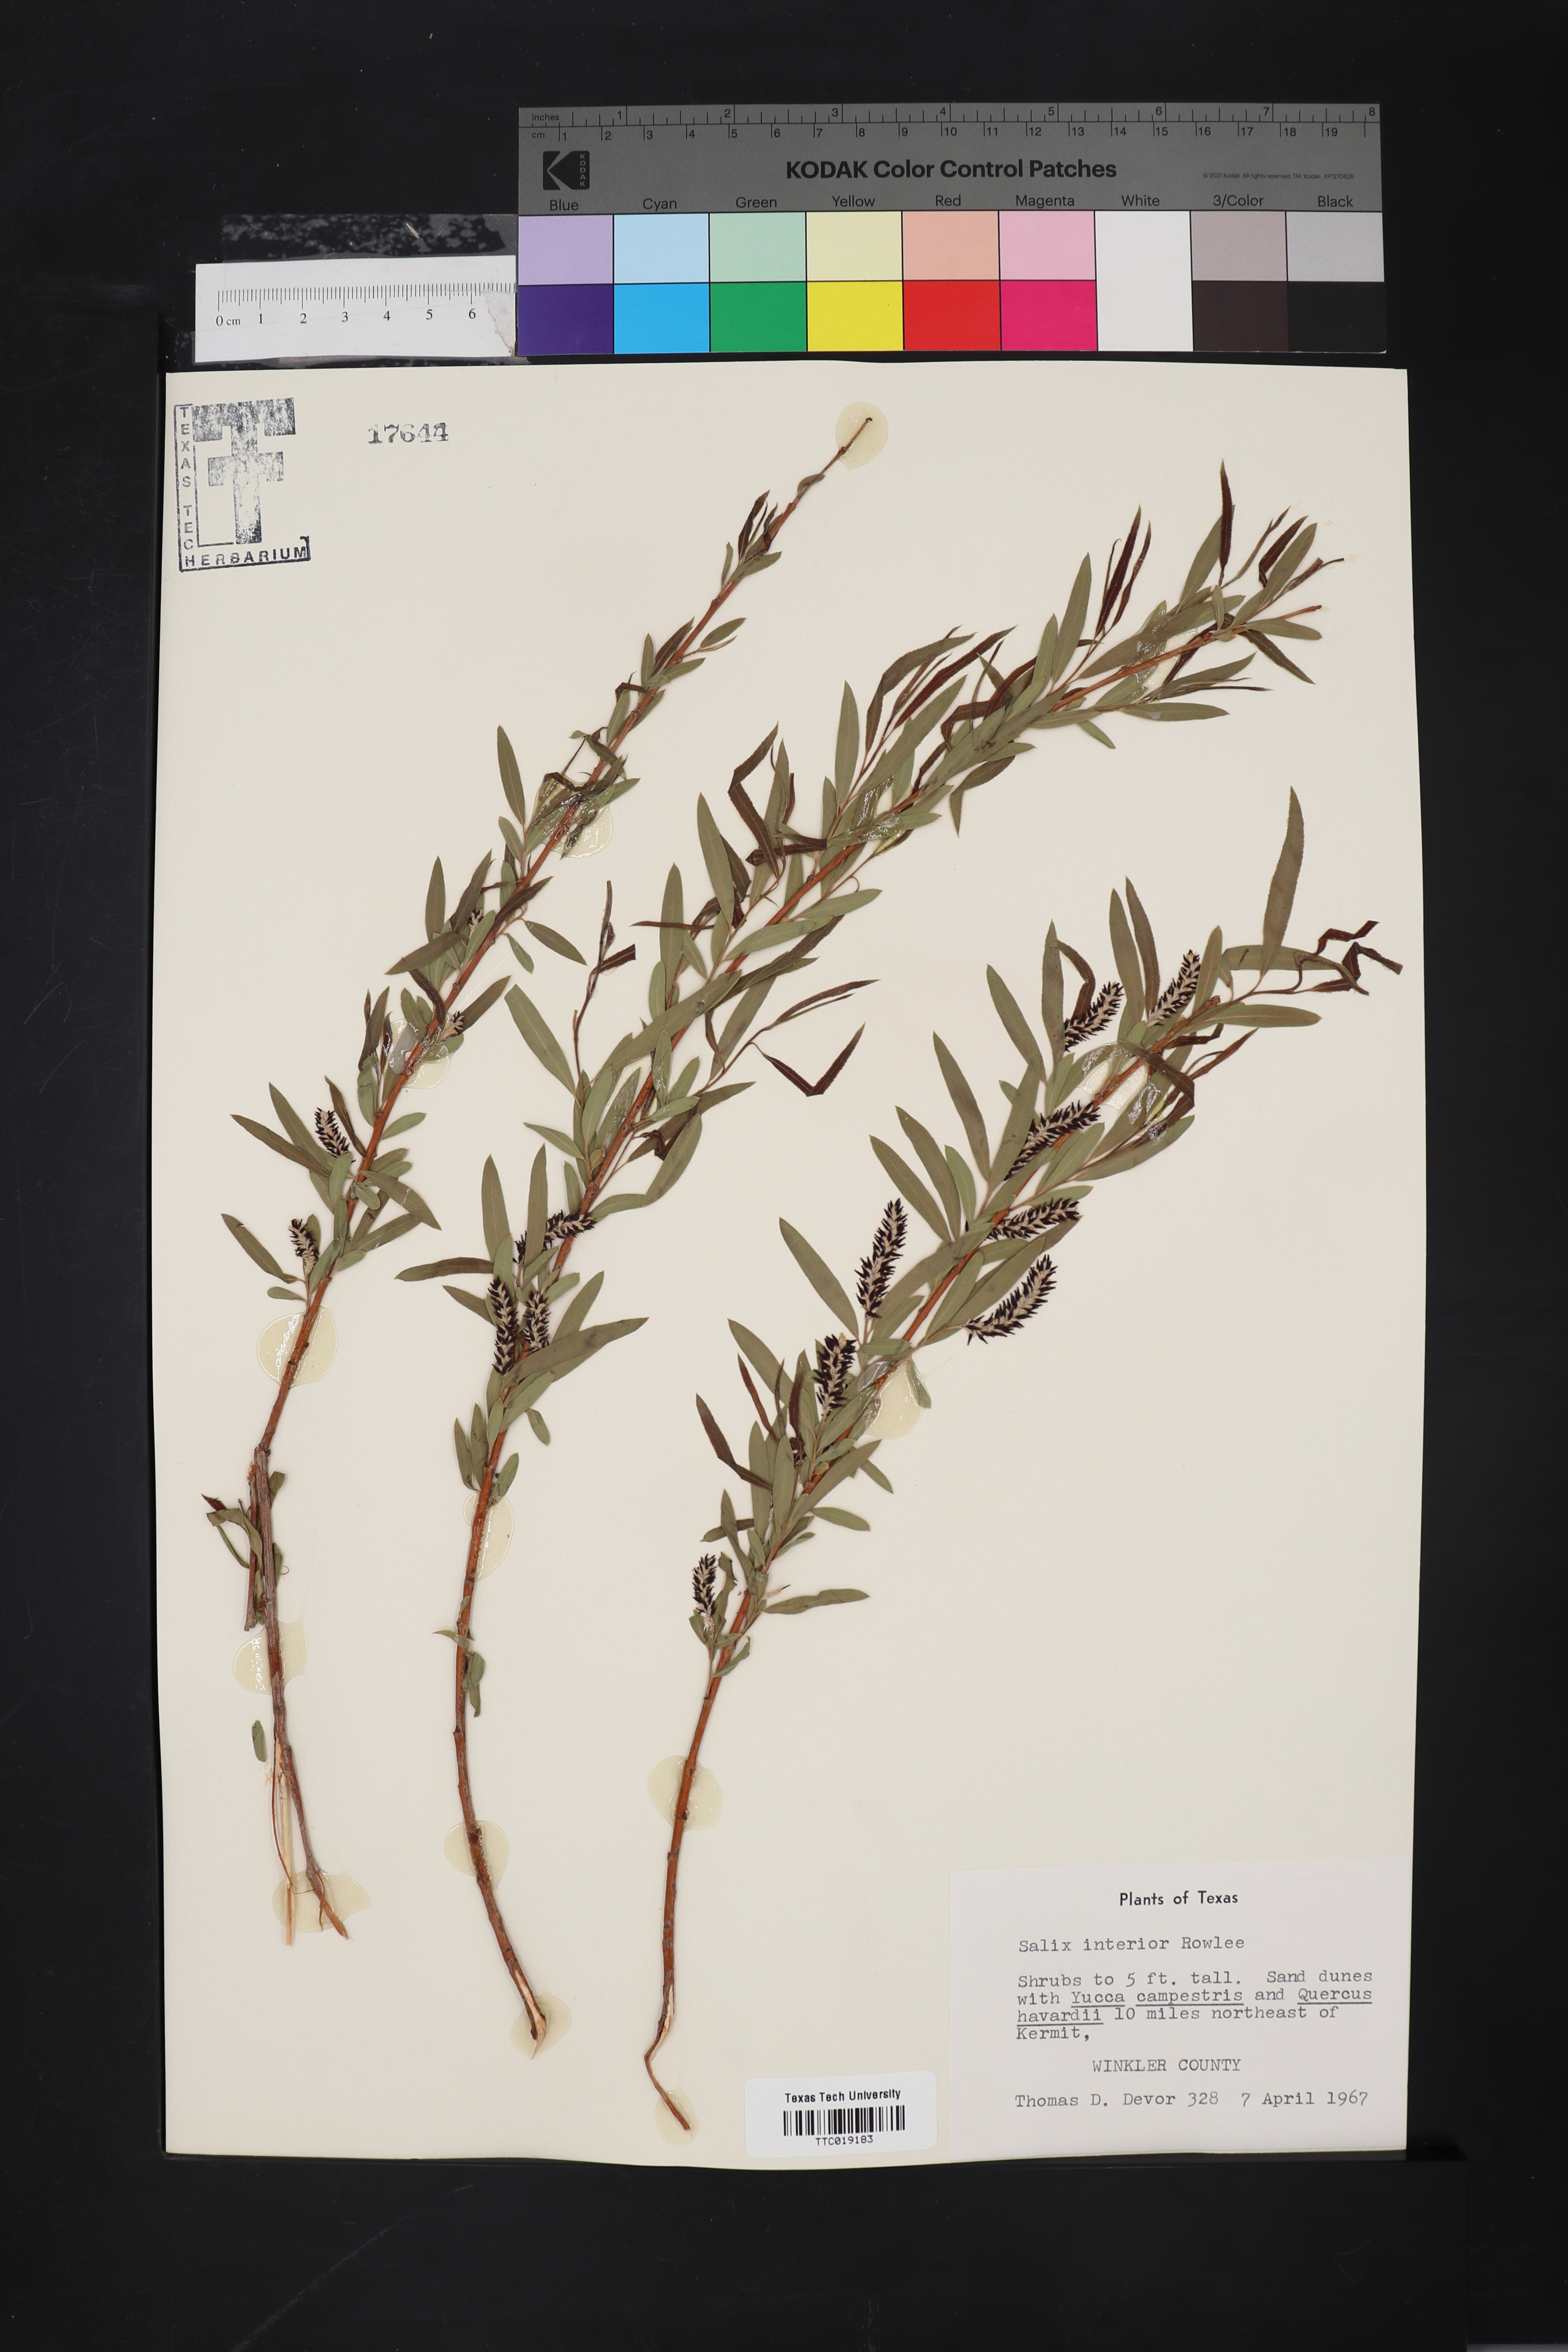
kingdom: Plantae
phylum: Tracheophyta
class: Magnoliopsida
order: Malpighiales
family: Salicaceae
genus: Salix
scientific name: Salix interior
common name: Sandbar willow
